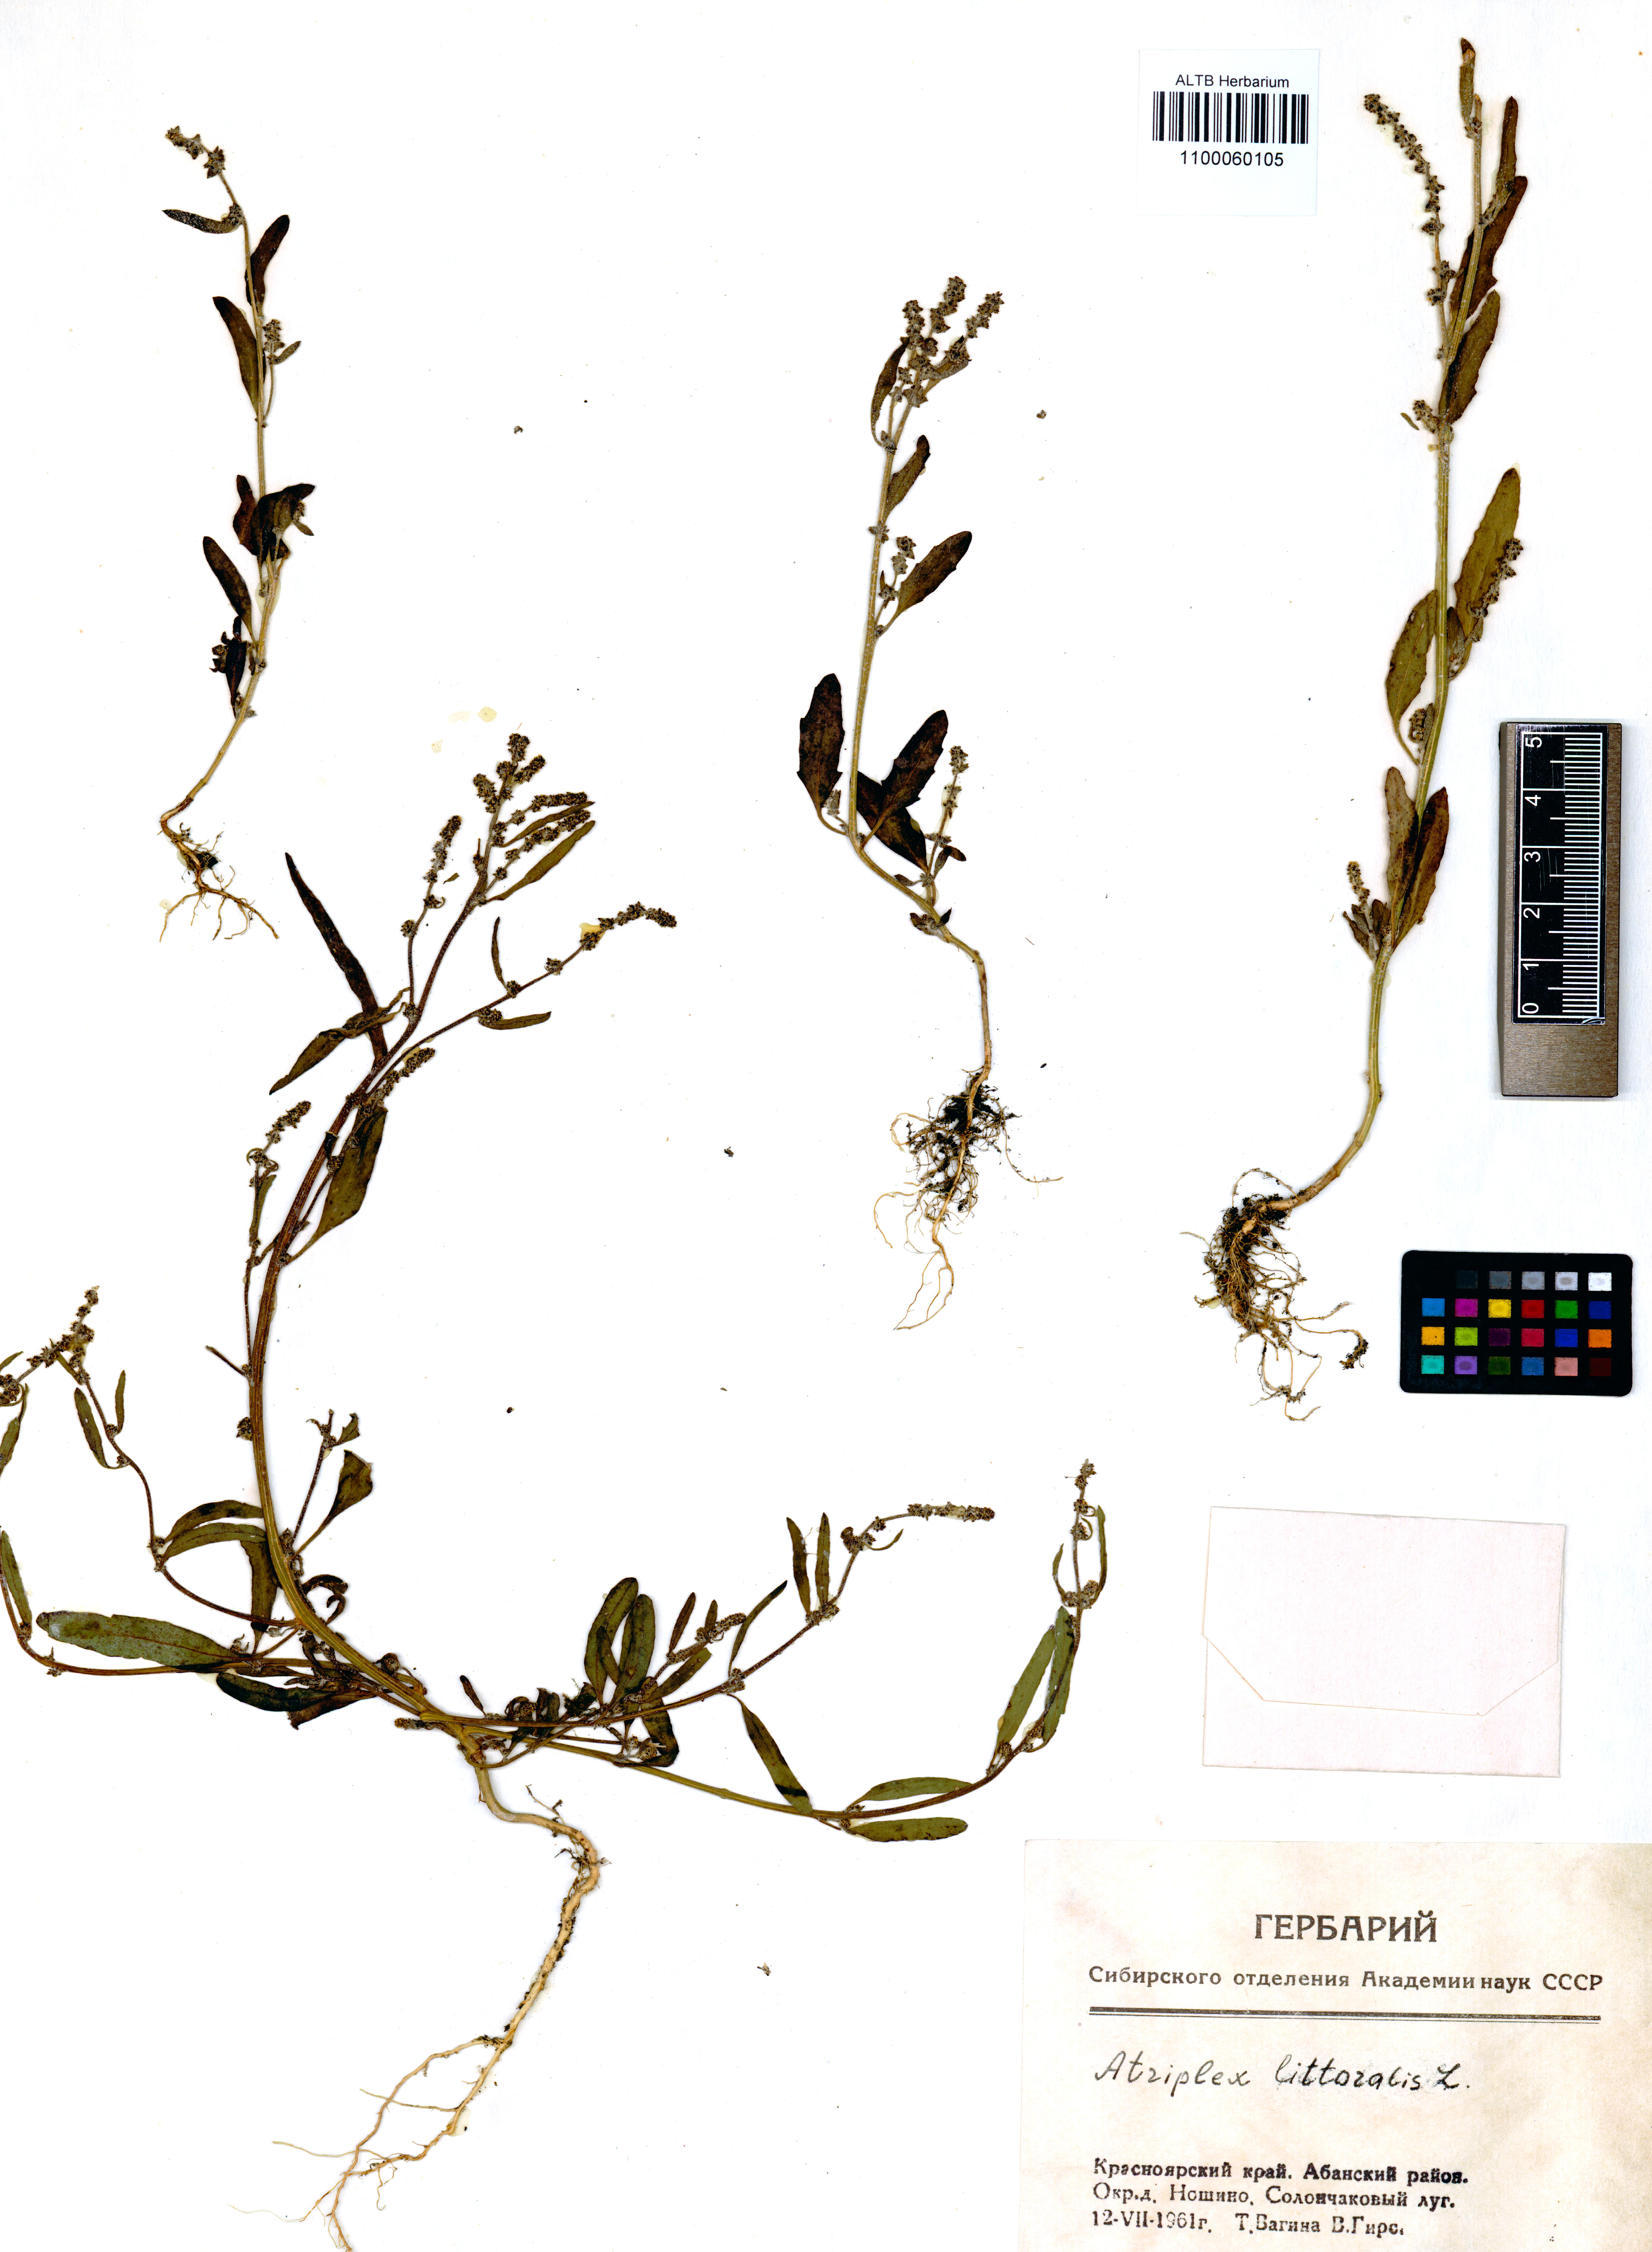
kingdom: Plantae
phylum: Tracheophyta
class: Magnoliopsida
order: Caryophyllales
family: Amaranthaceae
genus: Atriplex
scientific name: Atriplex littoralis
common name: Grass-leaved orache
